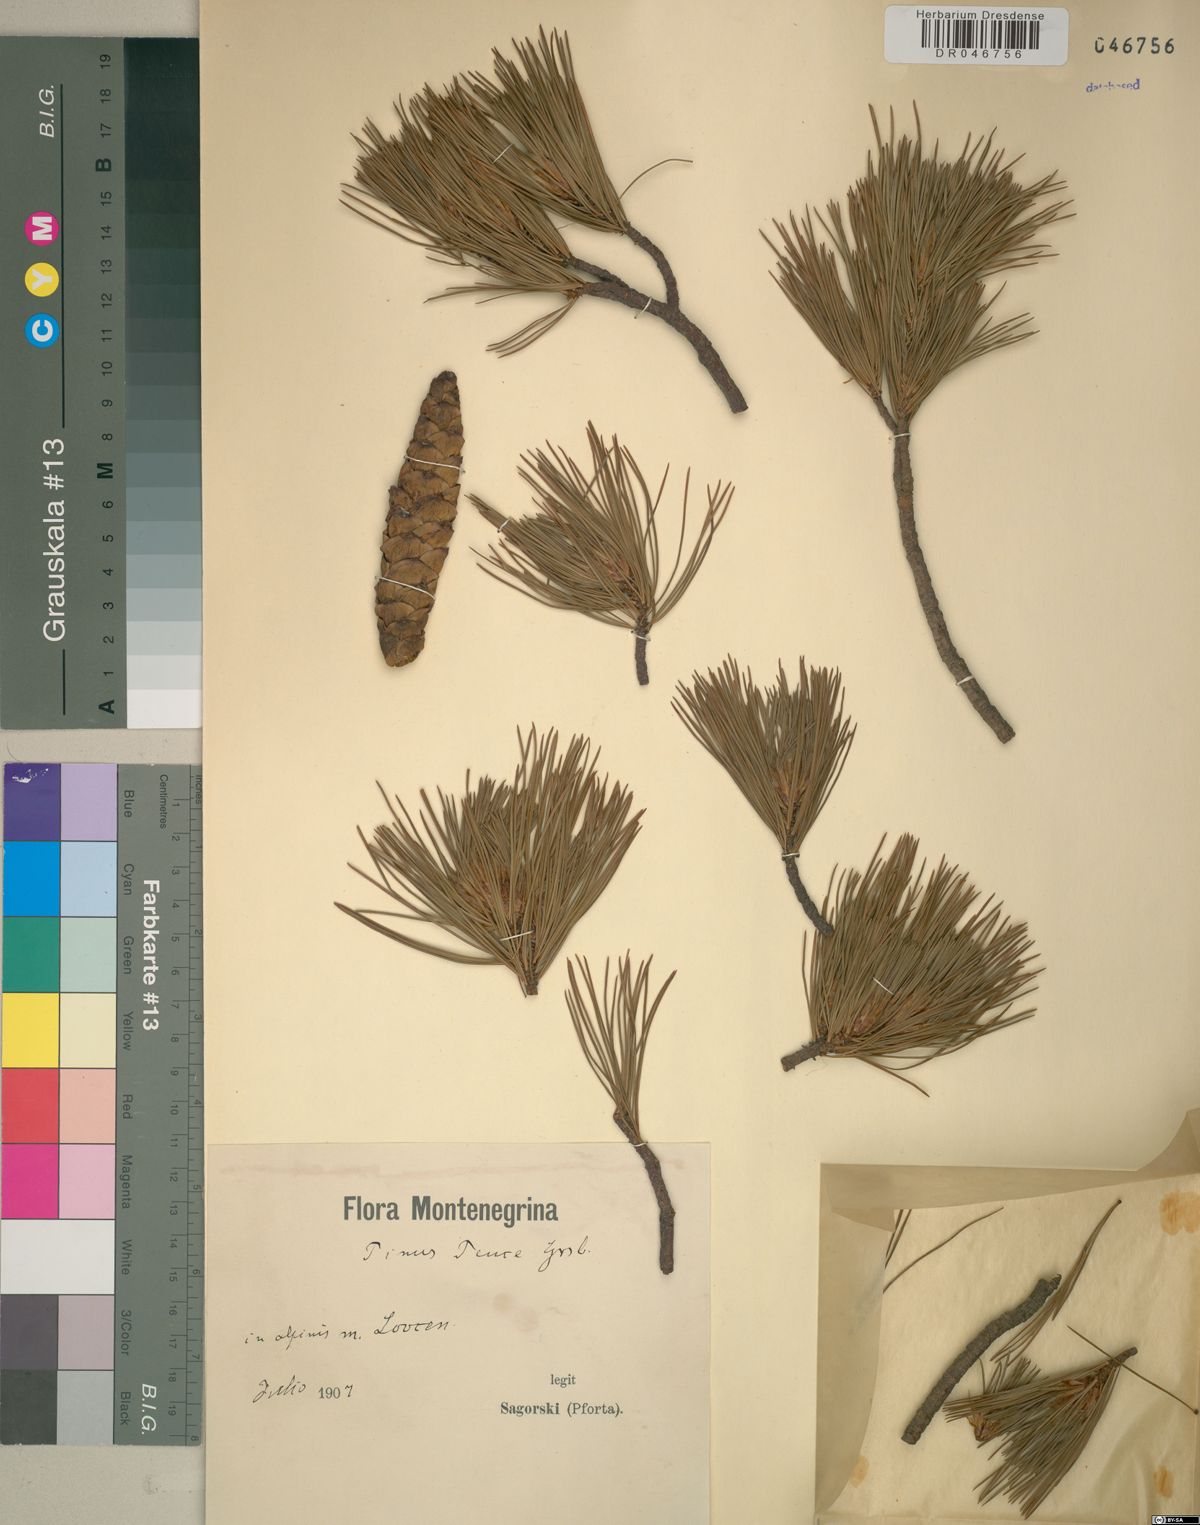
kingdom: Plantae
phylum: Tracheophyta
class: Pinopsida
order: Pinales
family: Pinaceae
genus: Pinus
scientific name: Pinus peuce
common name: Macedonian pine
